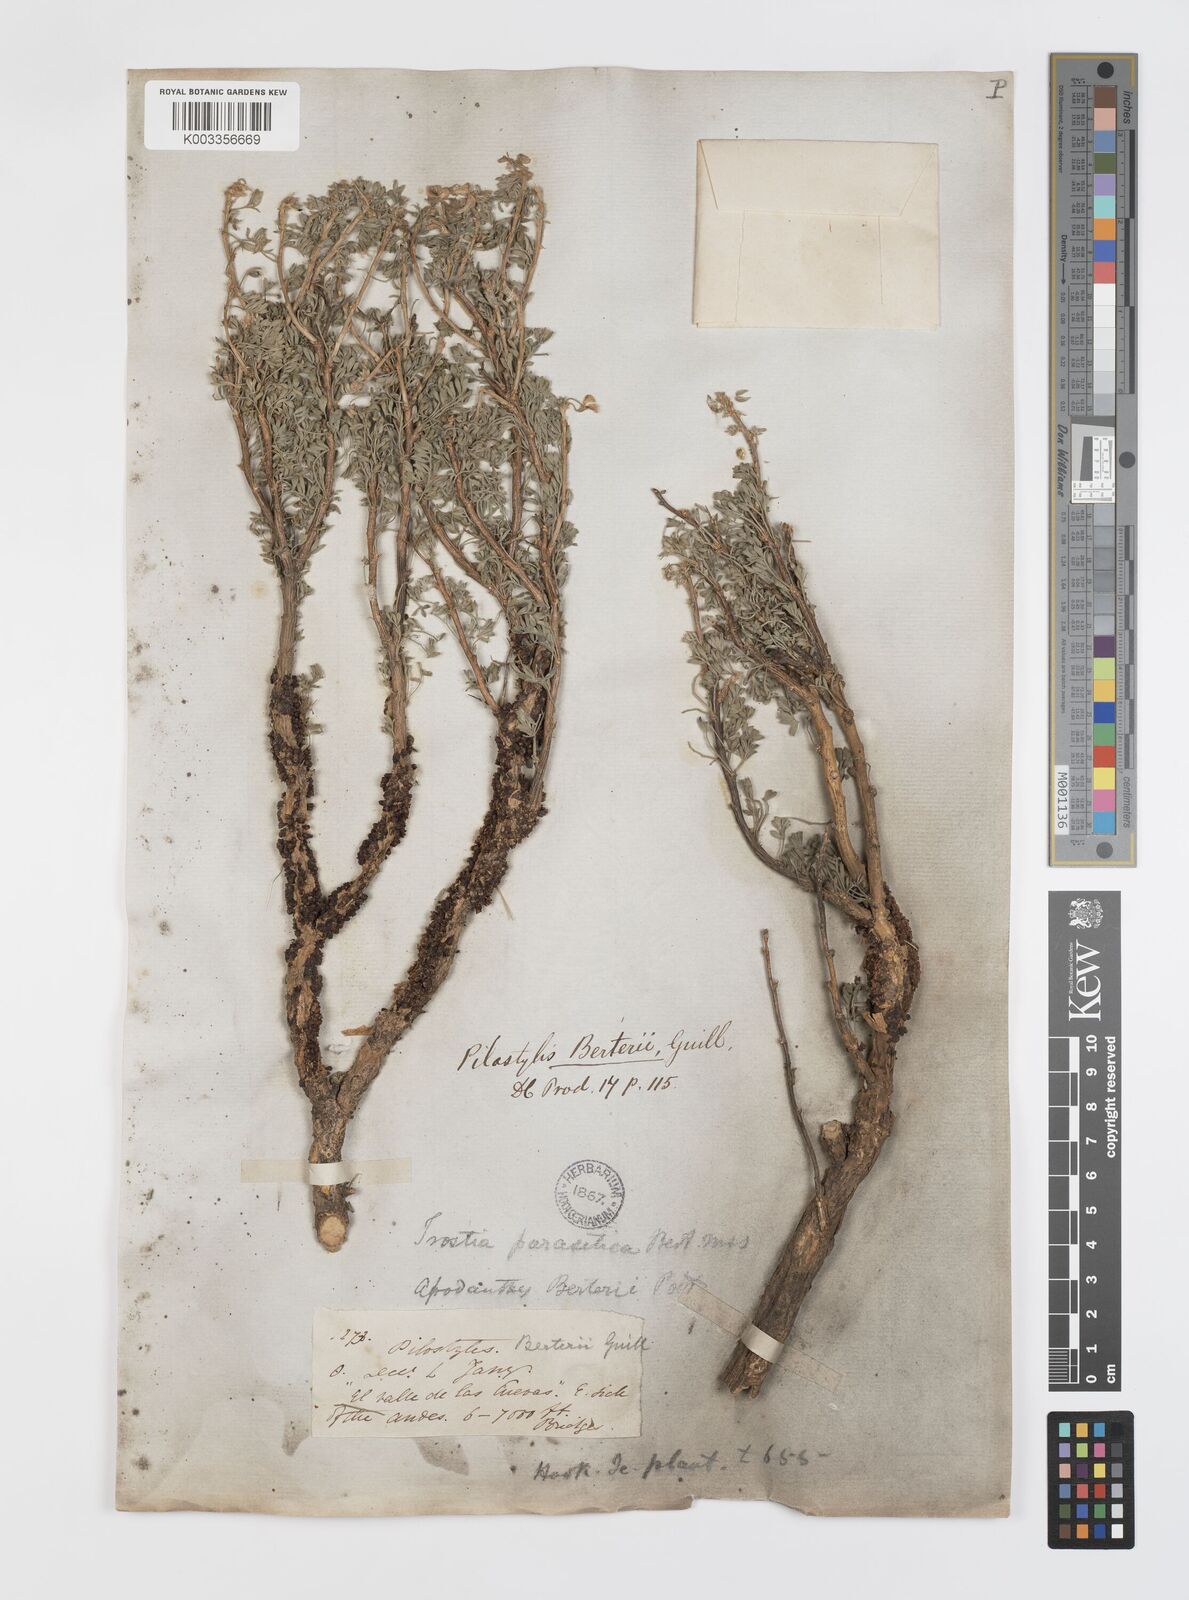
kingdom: Plantae
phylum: Tracheophyta
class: Magnoliopsida
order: Cucurbitales
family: Apodanthaceae
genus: Pilostyles
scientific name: Pilostyles berteroi
